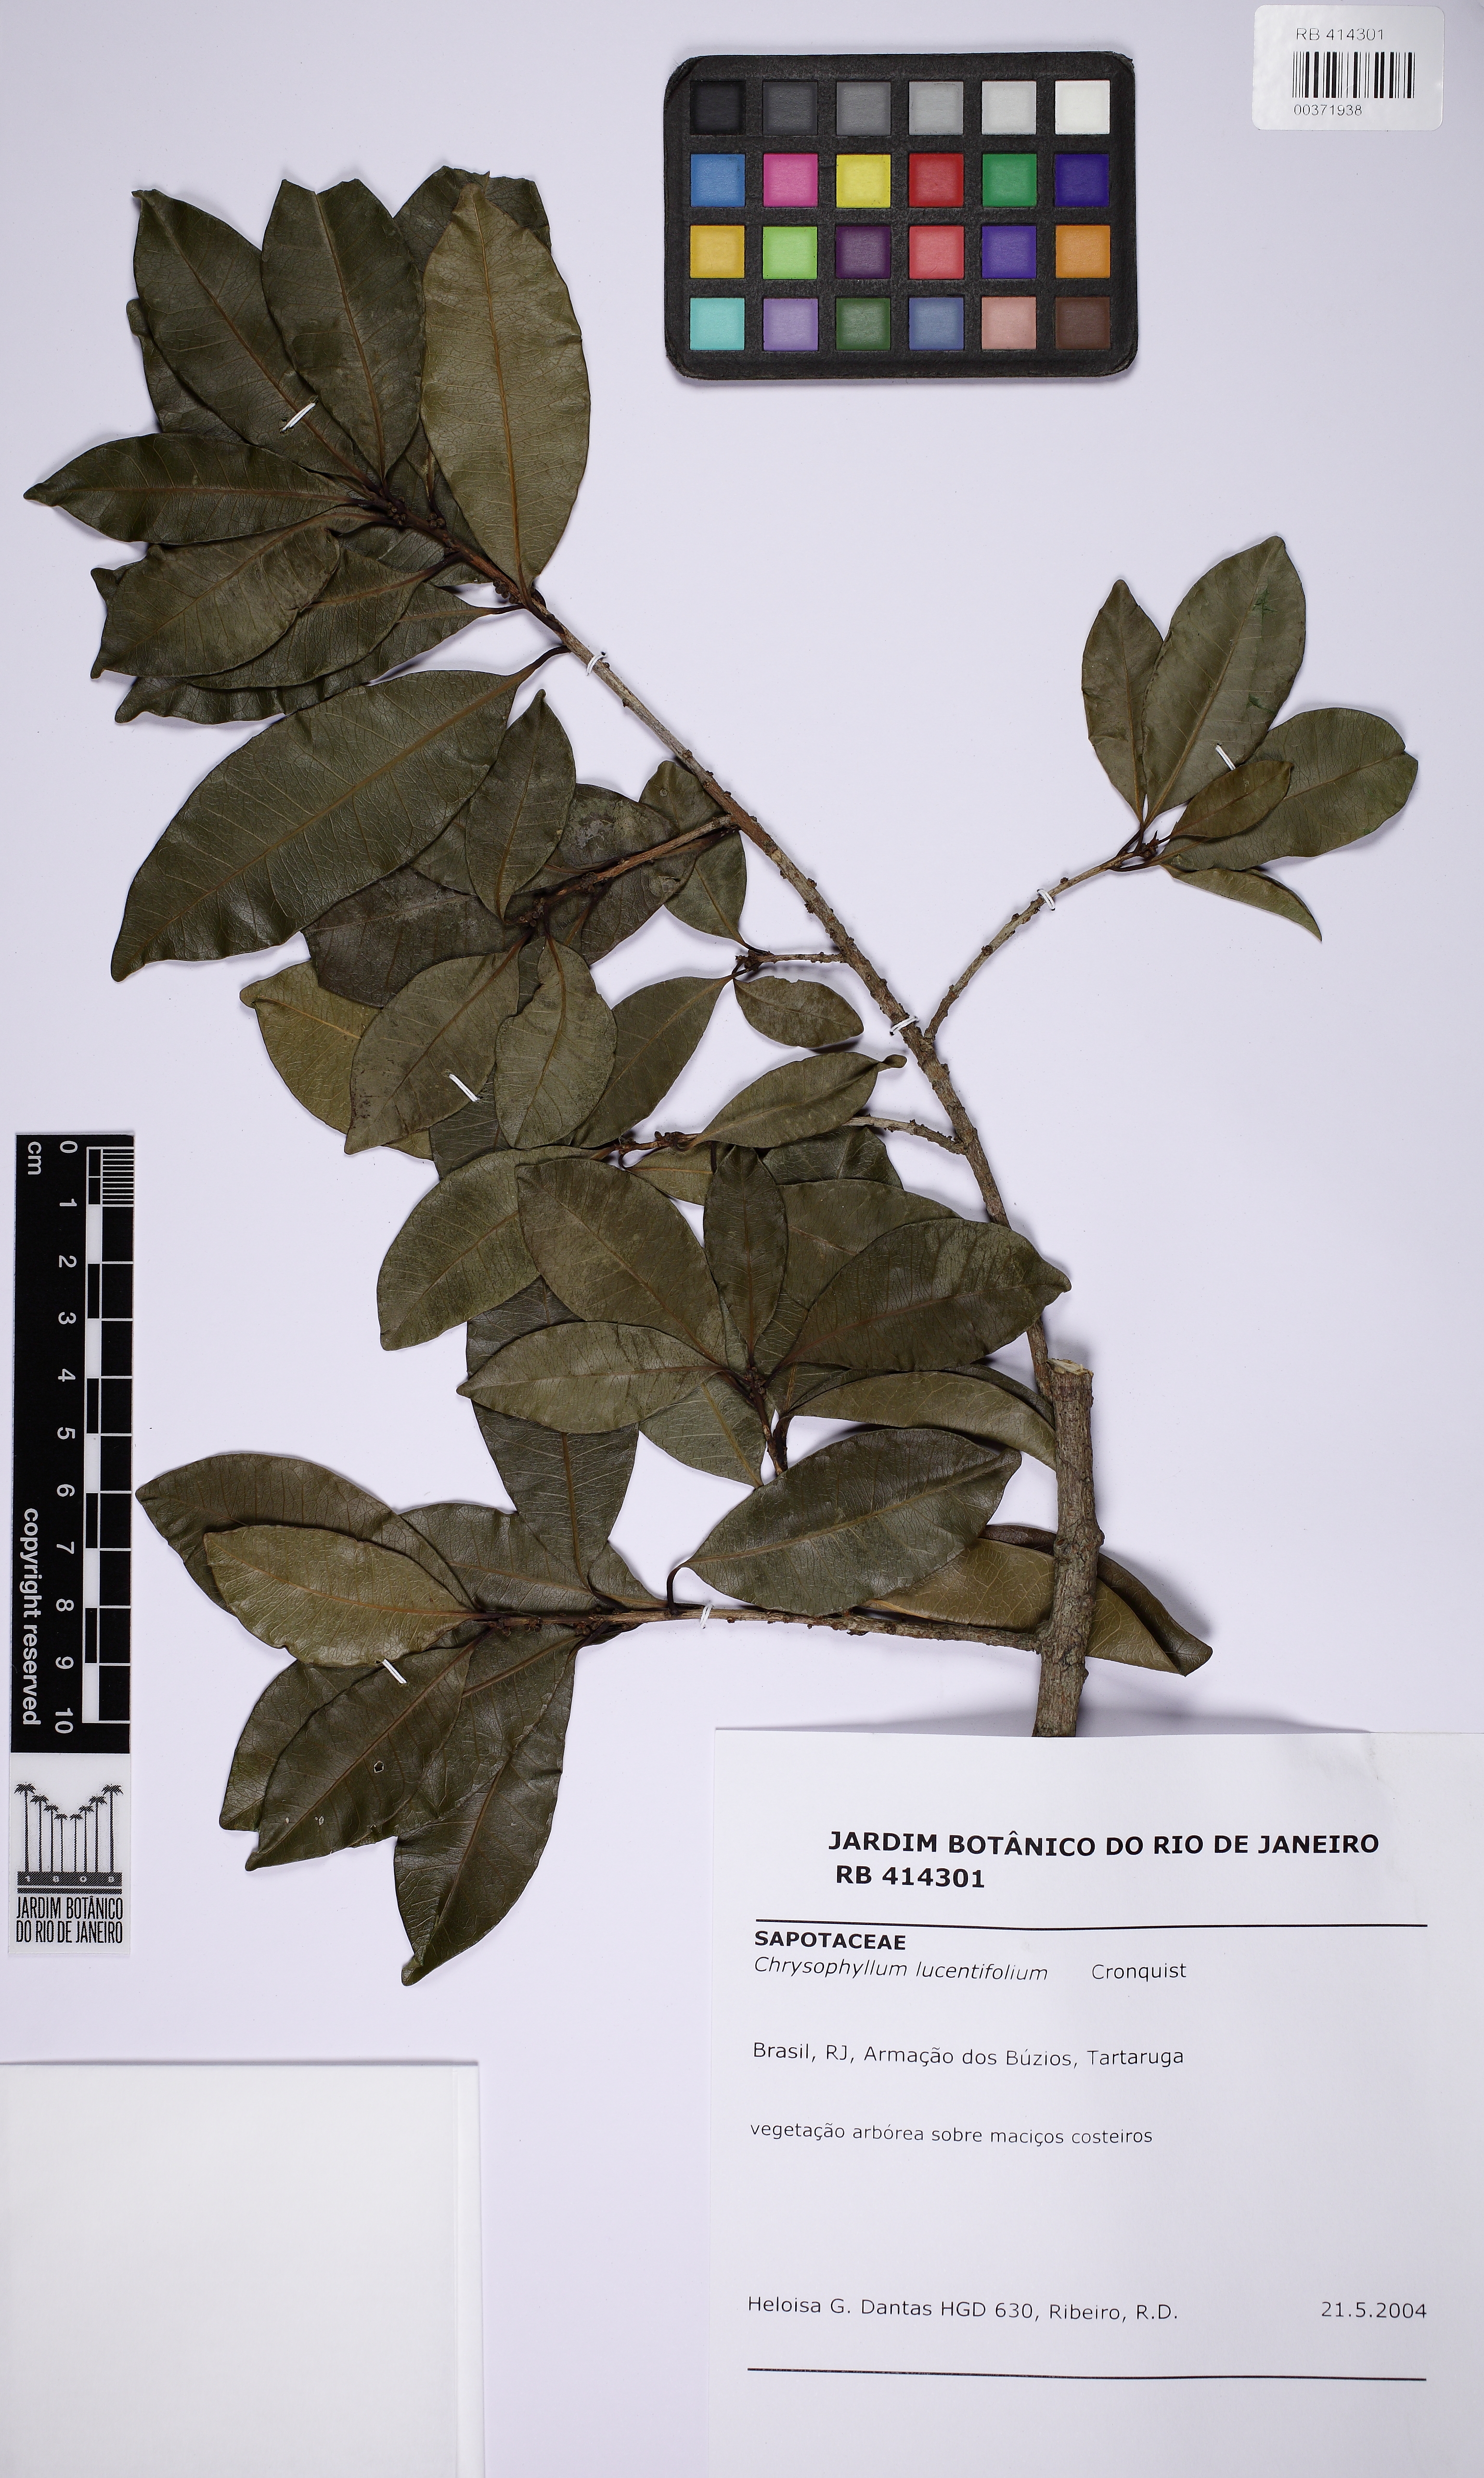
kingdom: Plantae
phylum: Tracheophyta
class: Magnoliopsida
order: Ericales
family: Sapotaceae
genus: Chrysophyllum
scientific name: Chrysophyllum lucentifolium
